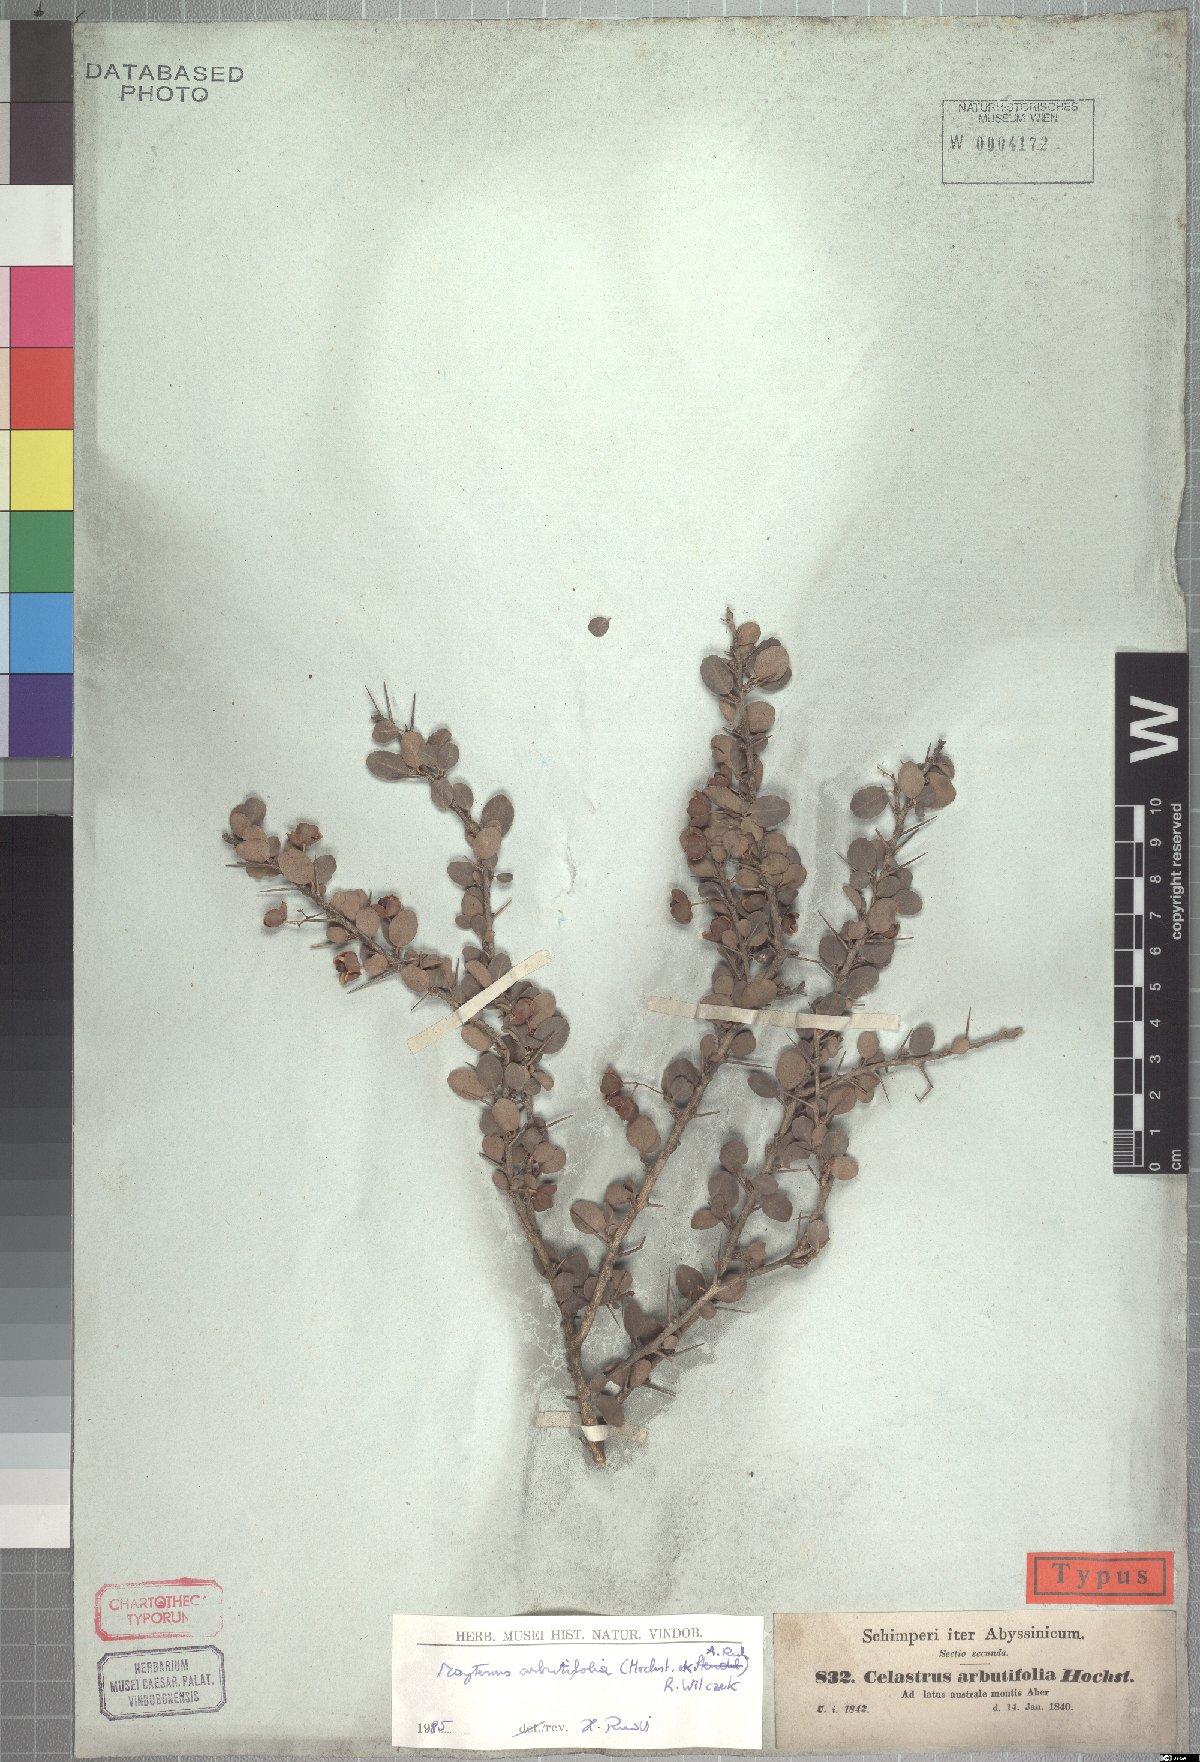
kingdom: Plantae
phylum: Tracheophyta
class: Magnoliopsida
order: Celastrales
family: Celastraceae
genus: Gymnosporia
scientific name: Gymnosporia arbutifolia
